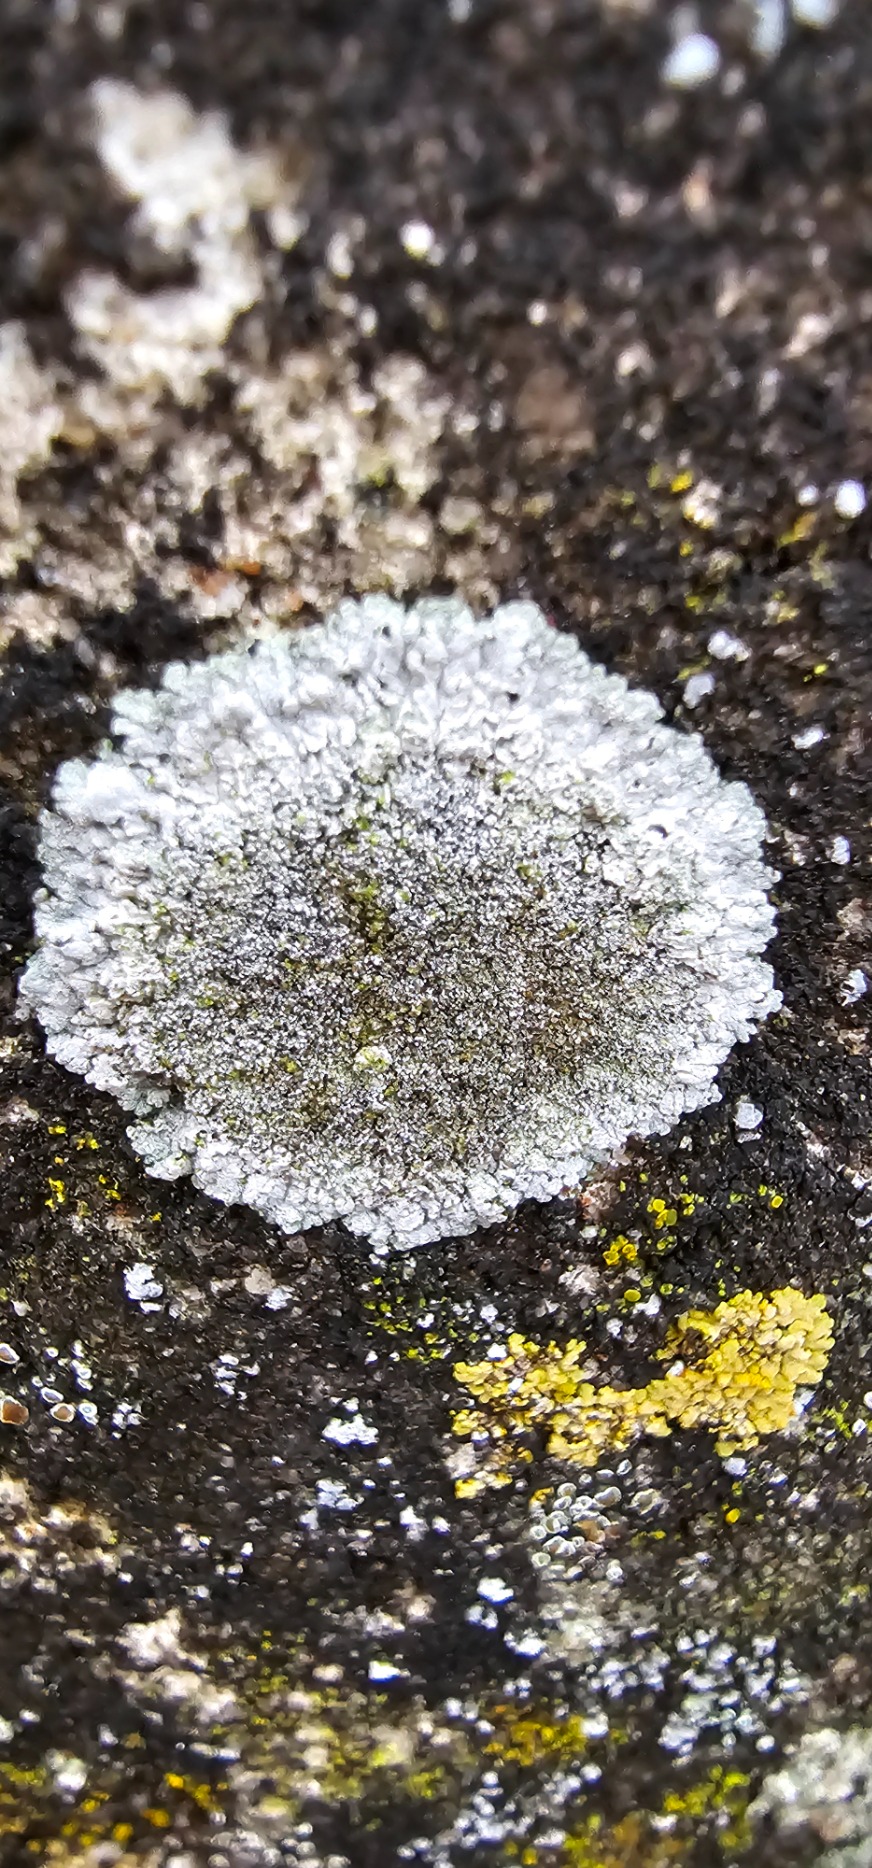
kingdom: Fungi
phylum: Ascomycota
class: Lecanoromycetes
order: Teloschistales
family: Teloschistaceae
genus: Kuettlingeria
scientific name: Kuettlingeria teicholyta
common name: Grå orangelav
